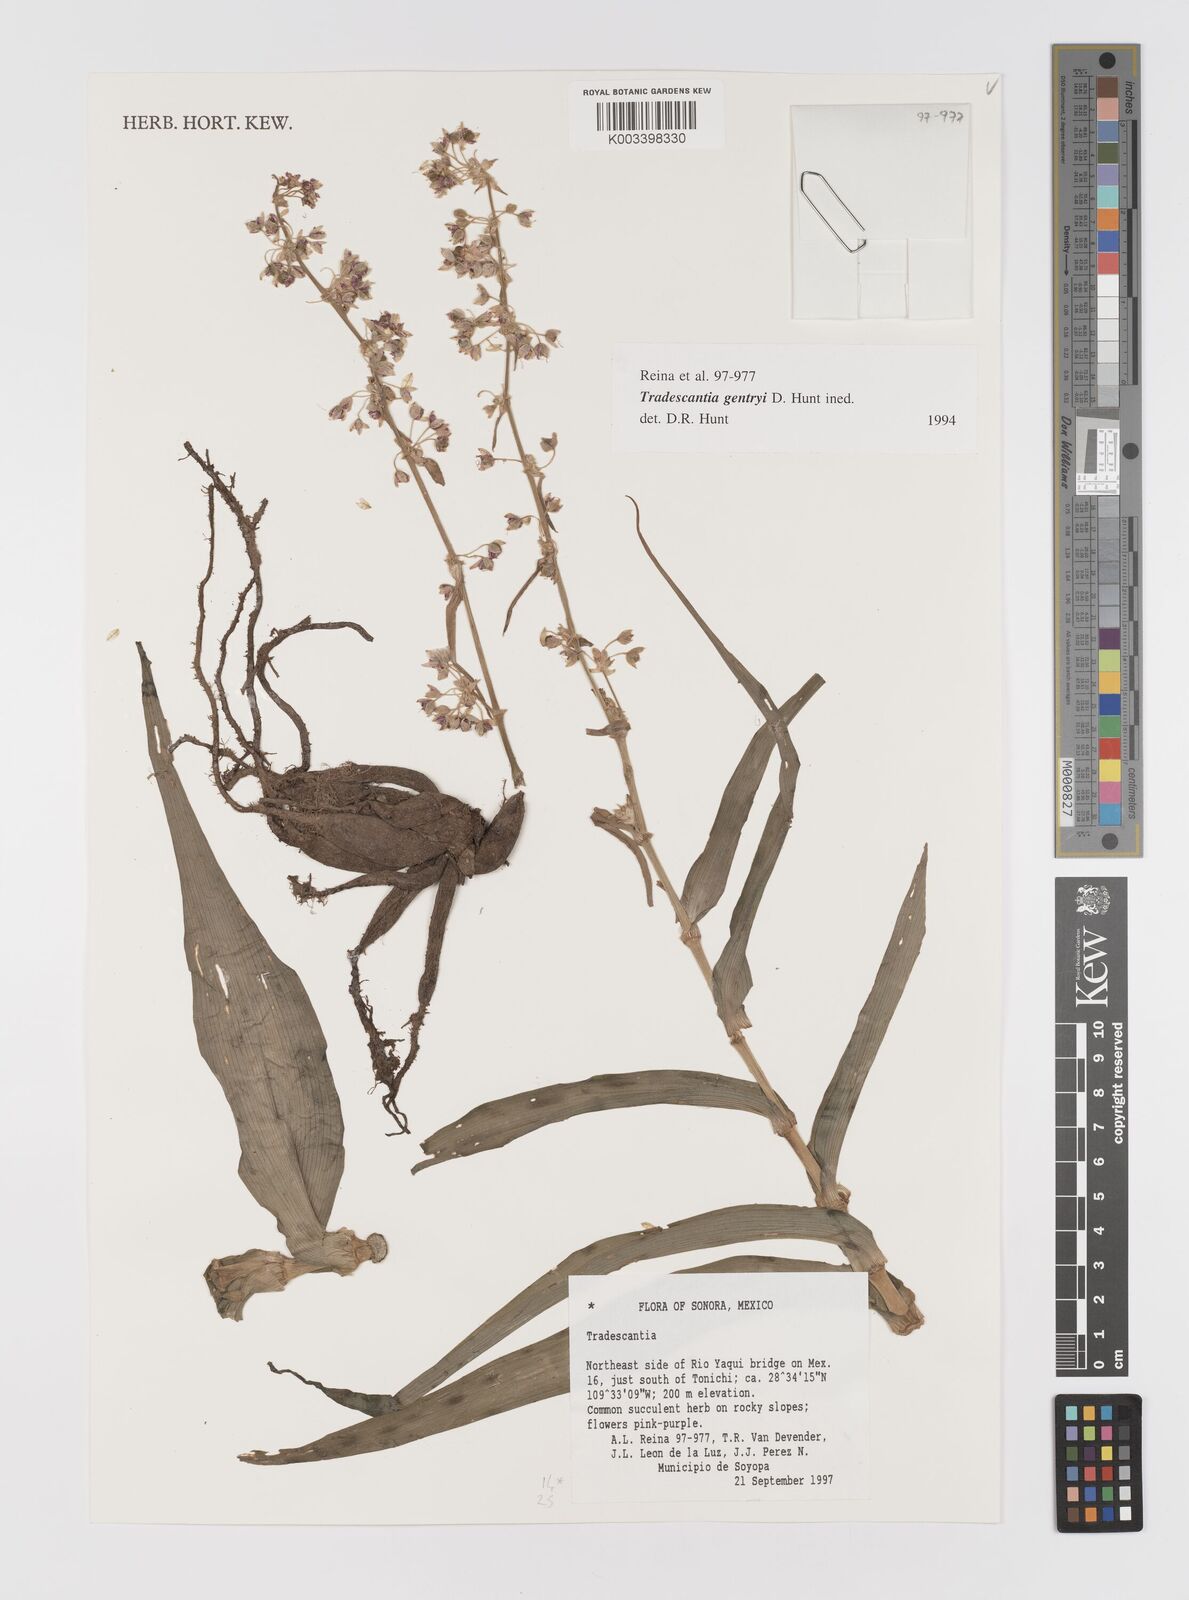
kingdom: Plantae
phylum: Tracheophyta
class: Liliopsida
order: Commelinales
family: Commelinaceae
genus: Tradescantia
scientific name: Tradescantia gentryi
